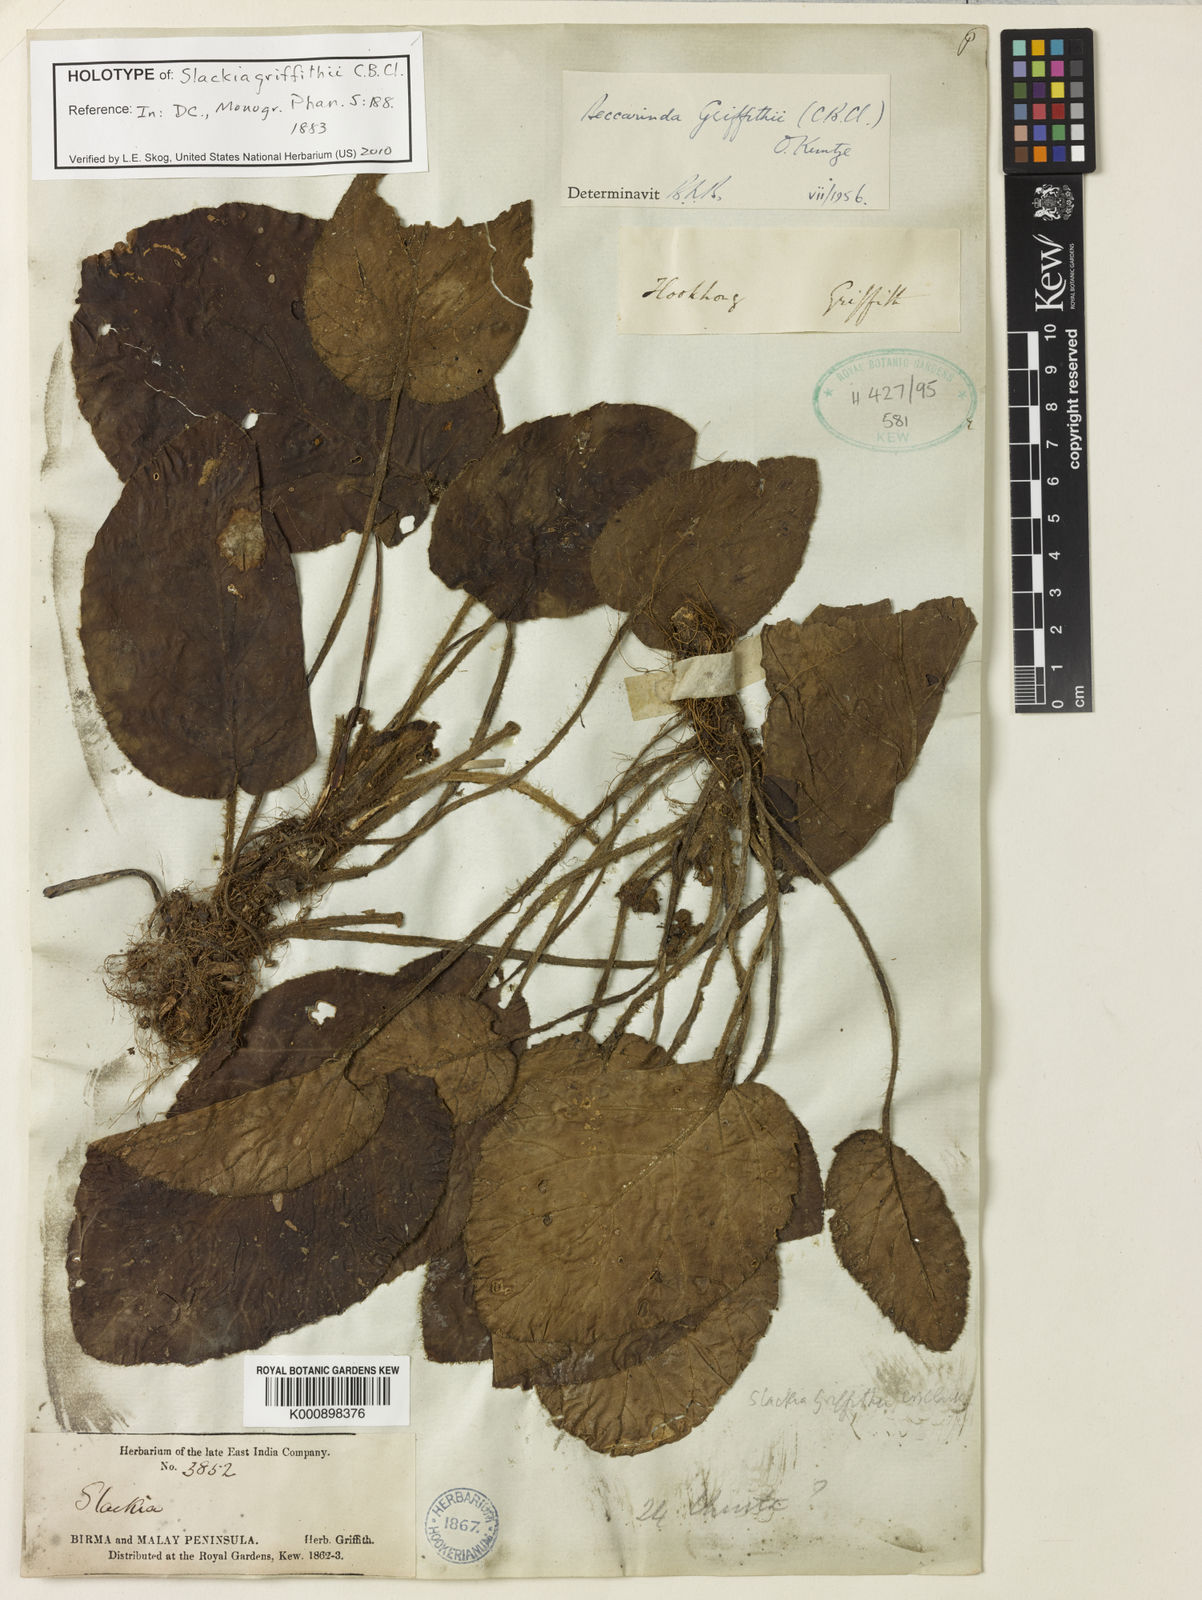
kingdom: Plantae
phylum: Tracheophyta
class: Magnoliopsida
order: Lamiales
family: Gesneriaceae
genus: Beccarinda
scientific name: Beccarinda griffithii
